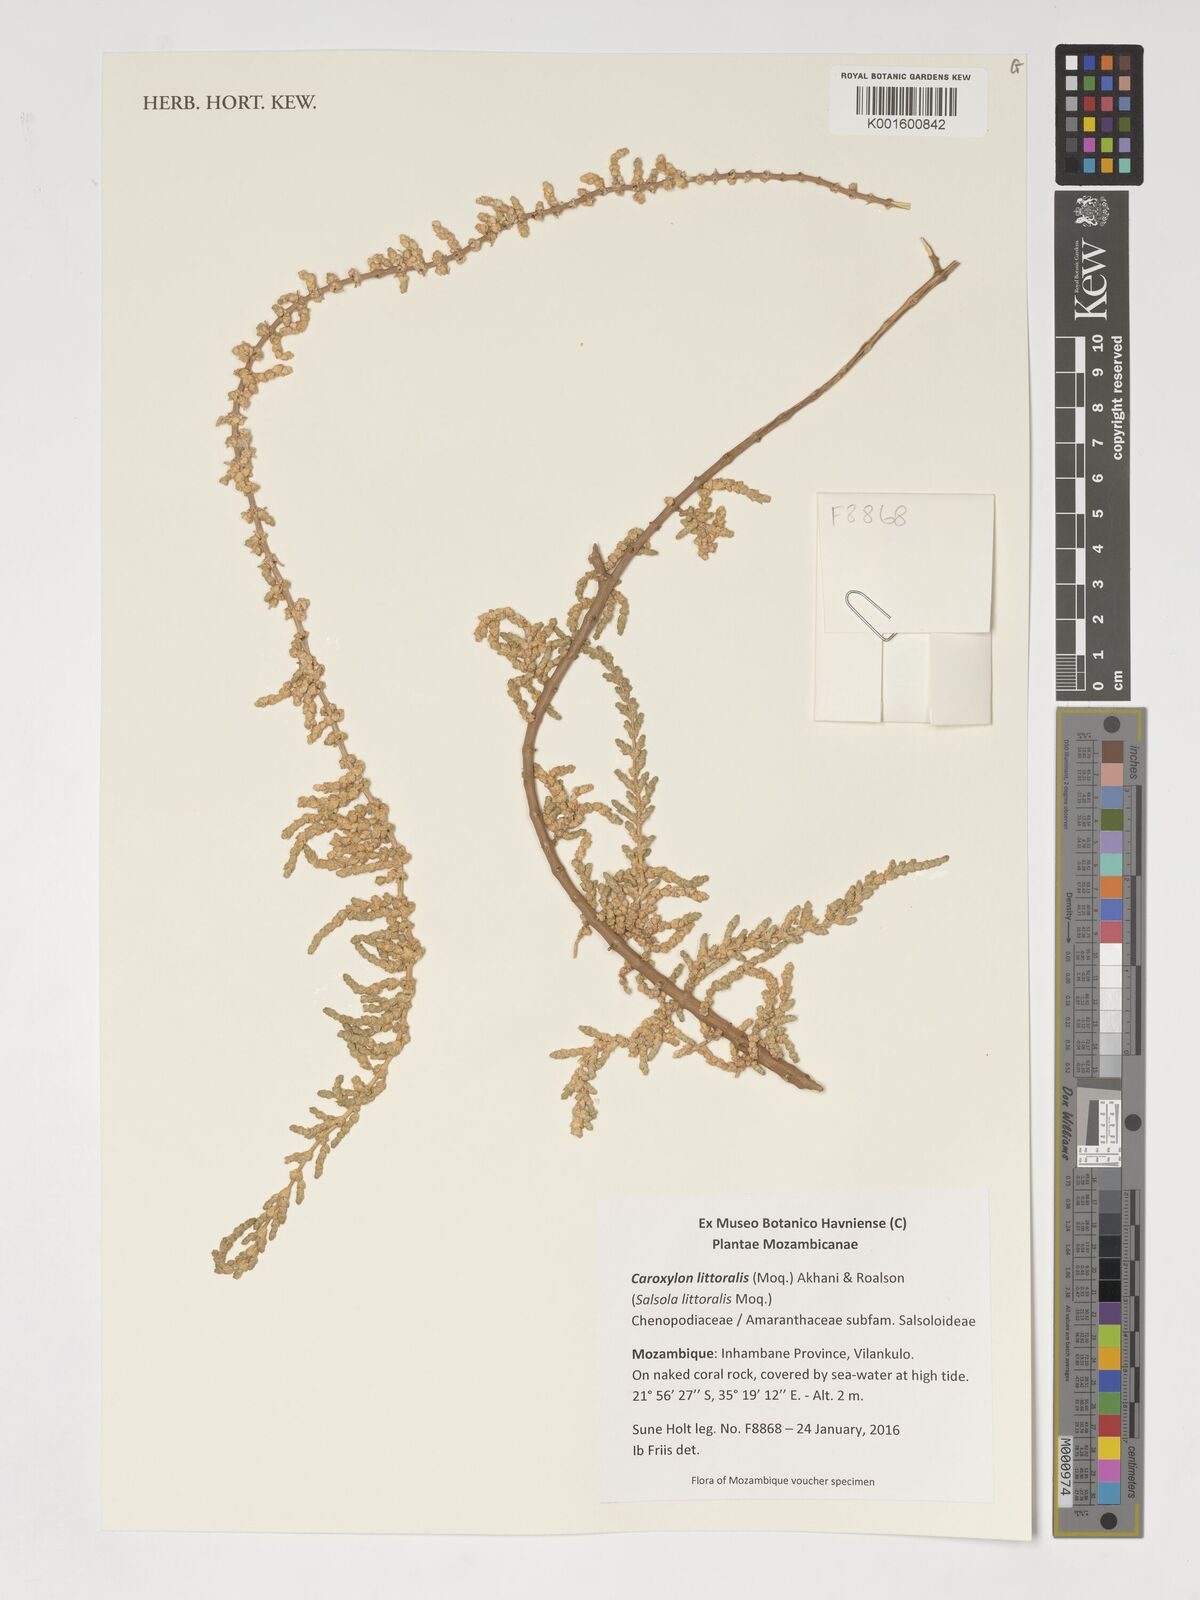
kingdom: Plantae
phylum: Tracheophyta
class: Magnoliopsida
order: Caryophyllales
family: Amaranthaceae
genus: Caroxylon
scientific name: Caroxylon littoralis
